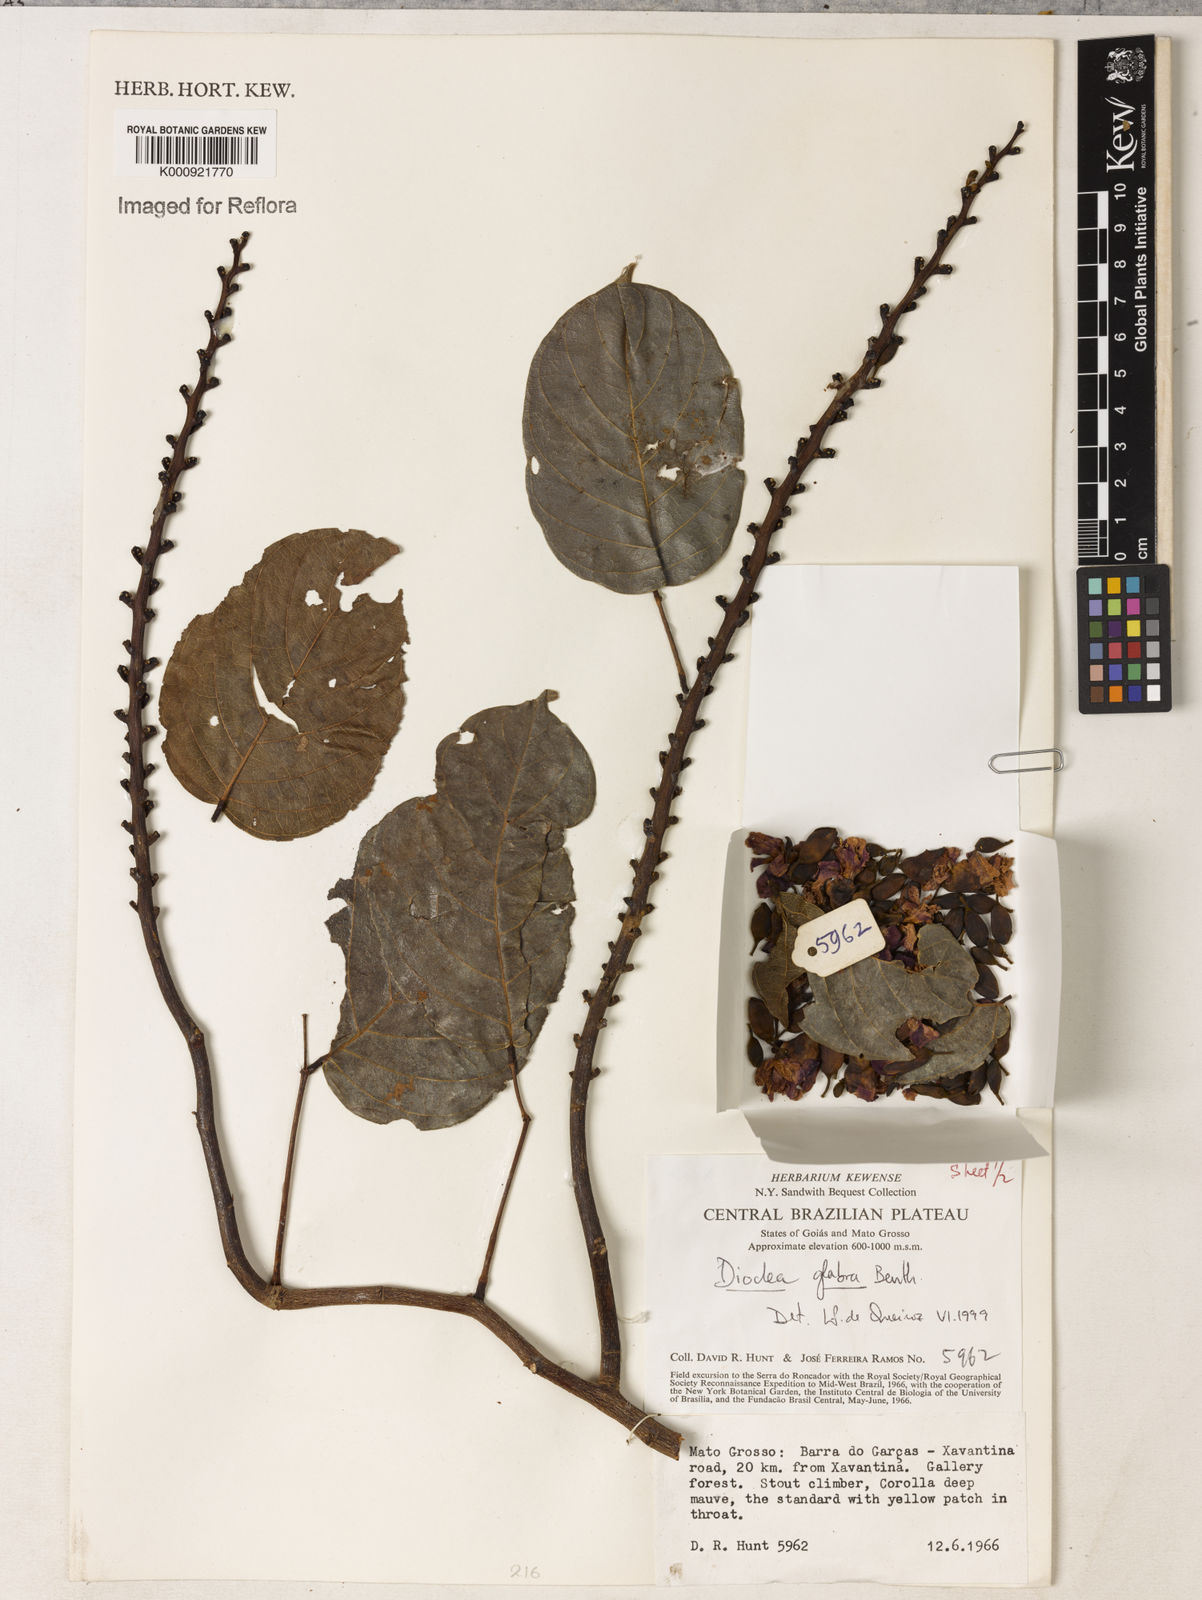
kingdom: Plantae
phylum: Tracheophyta
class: Magnoliopsida
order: Fabales
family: Fabaceae
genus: Macropsychanthus
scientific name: Macropsychanthus glaber
